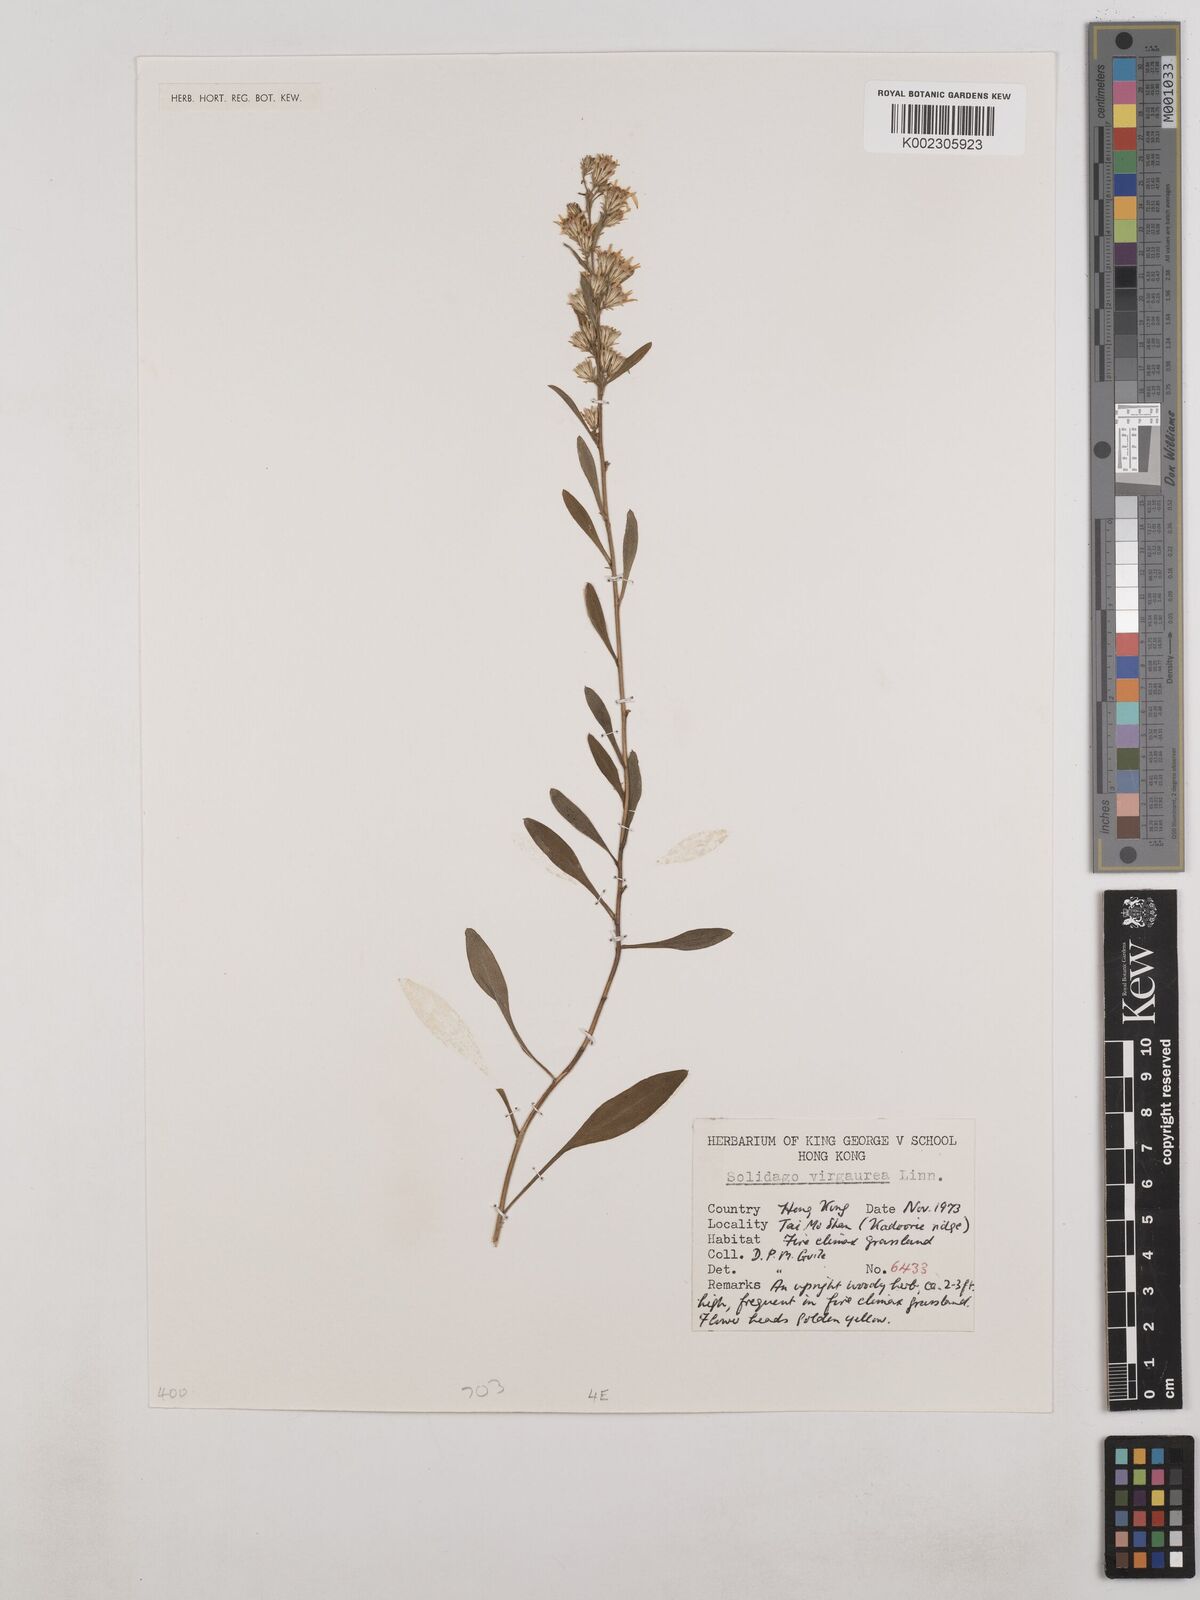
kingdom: Plantae
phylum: Tracheophyta
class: Magnoliopsida
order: Asterales
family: Asteraceae
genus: Solidago
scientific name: Solidago virgaurea
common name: Goldenrod
